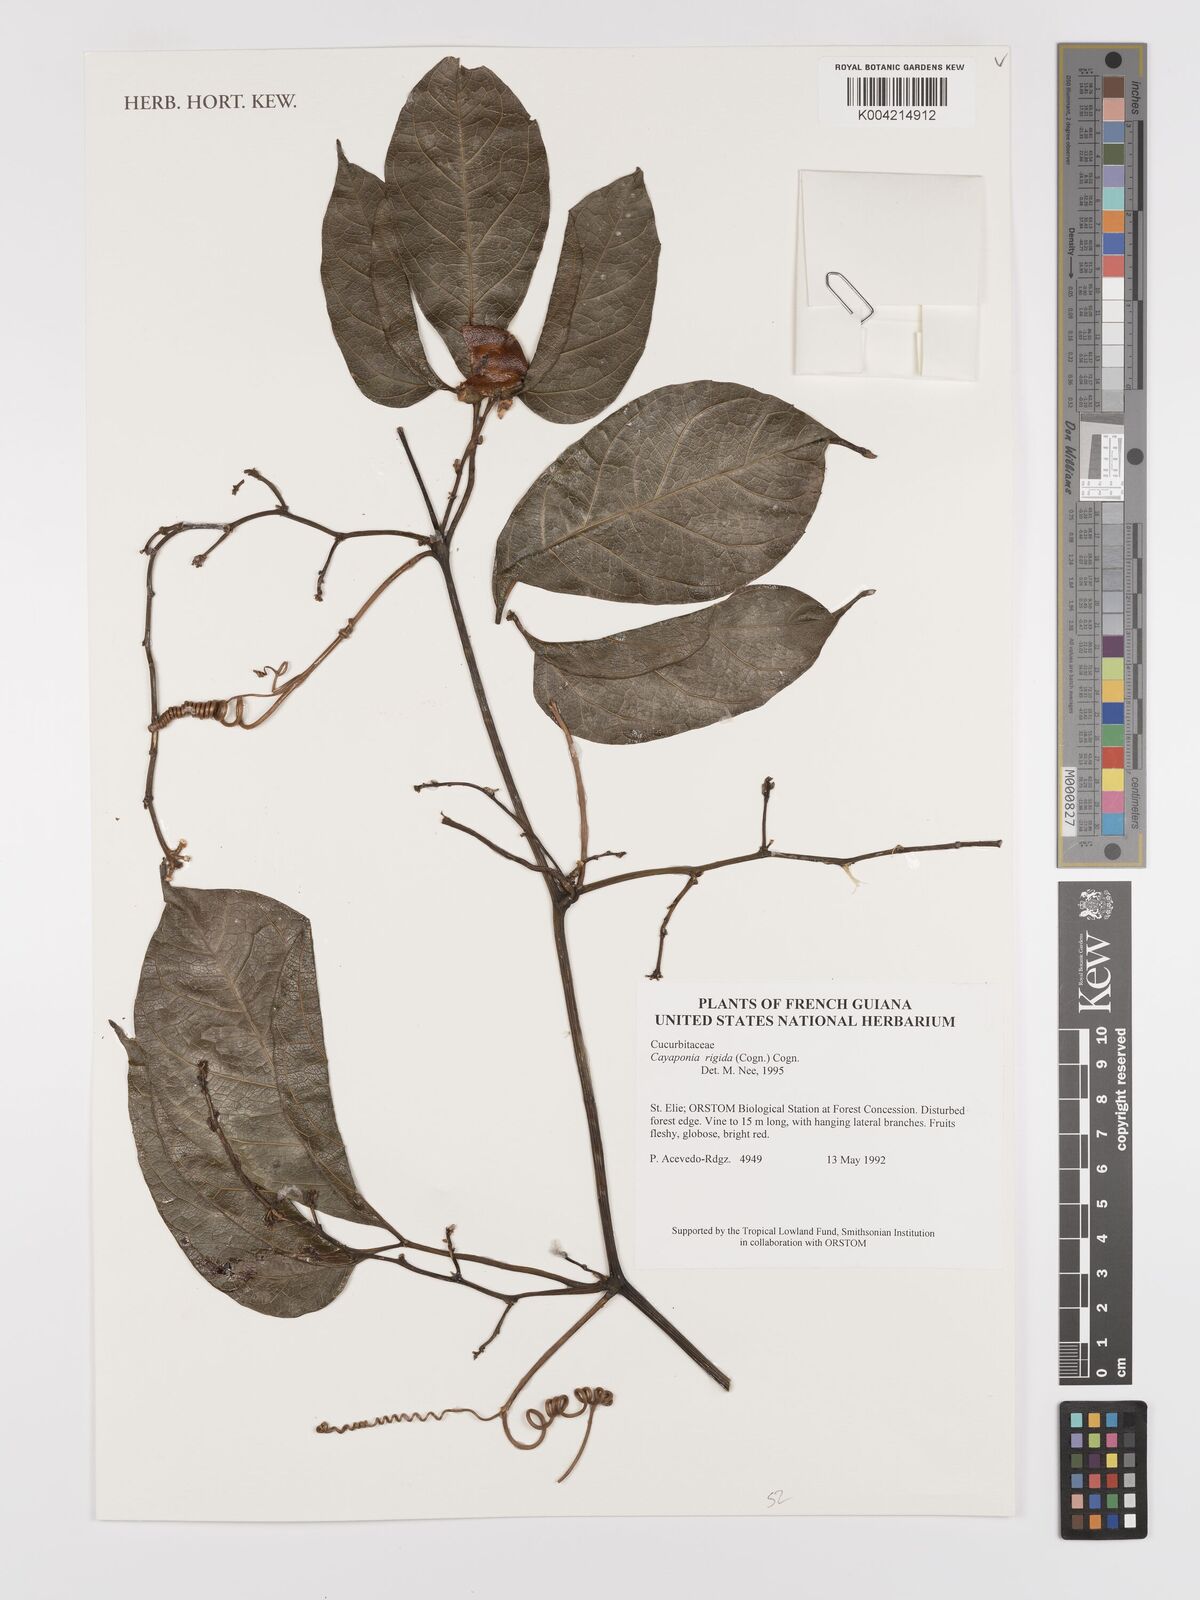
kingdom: Plantae
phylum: Tracheophyta
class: Magnoliopsida
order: Cucurbitales
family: Cucurbitaceae
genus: Cayaponia
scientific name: Cayaponia rigida
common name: Boskomkommer
